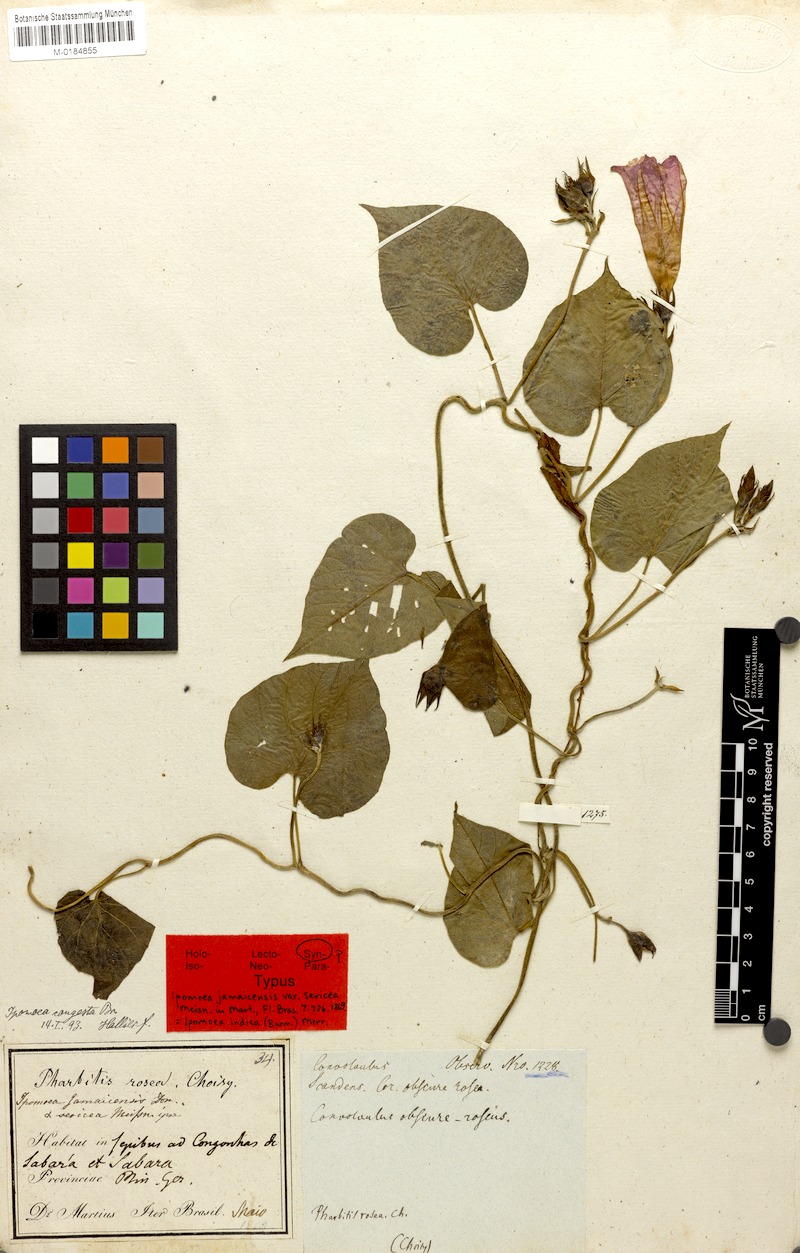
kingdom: Plantae
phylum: Tracheophyta
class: Magnoliopsida
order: Solanales
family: Convolvulaceae
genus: Ipomoea
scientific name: Ipomoea indica
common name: Blue dawnflower
